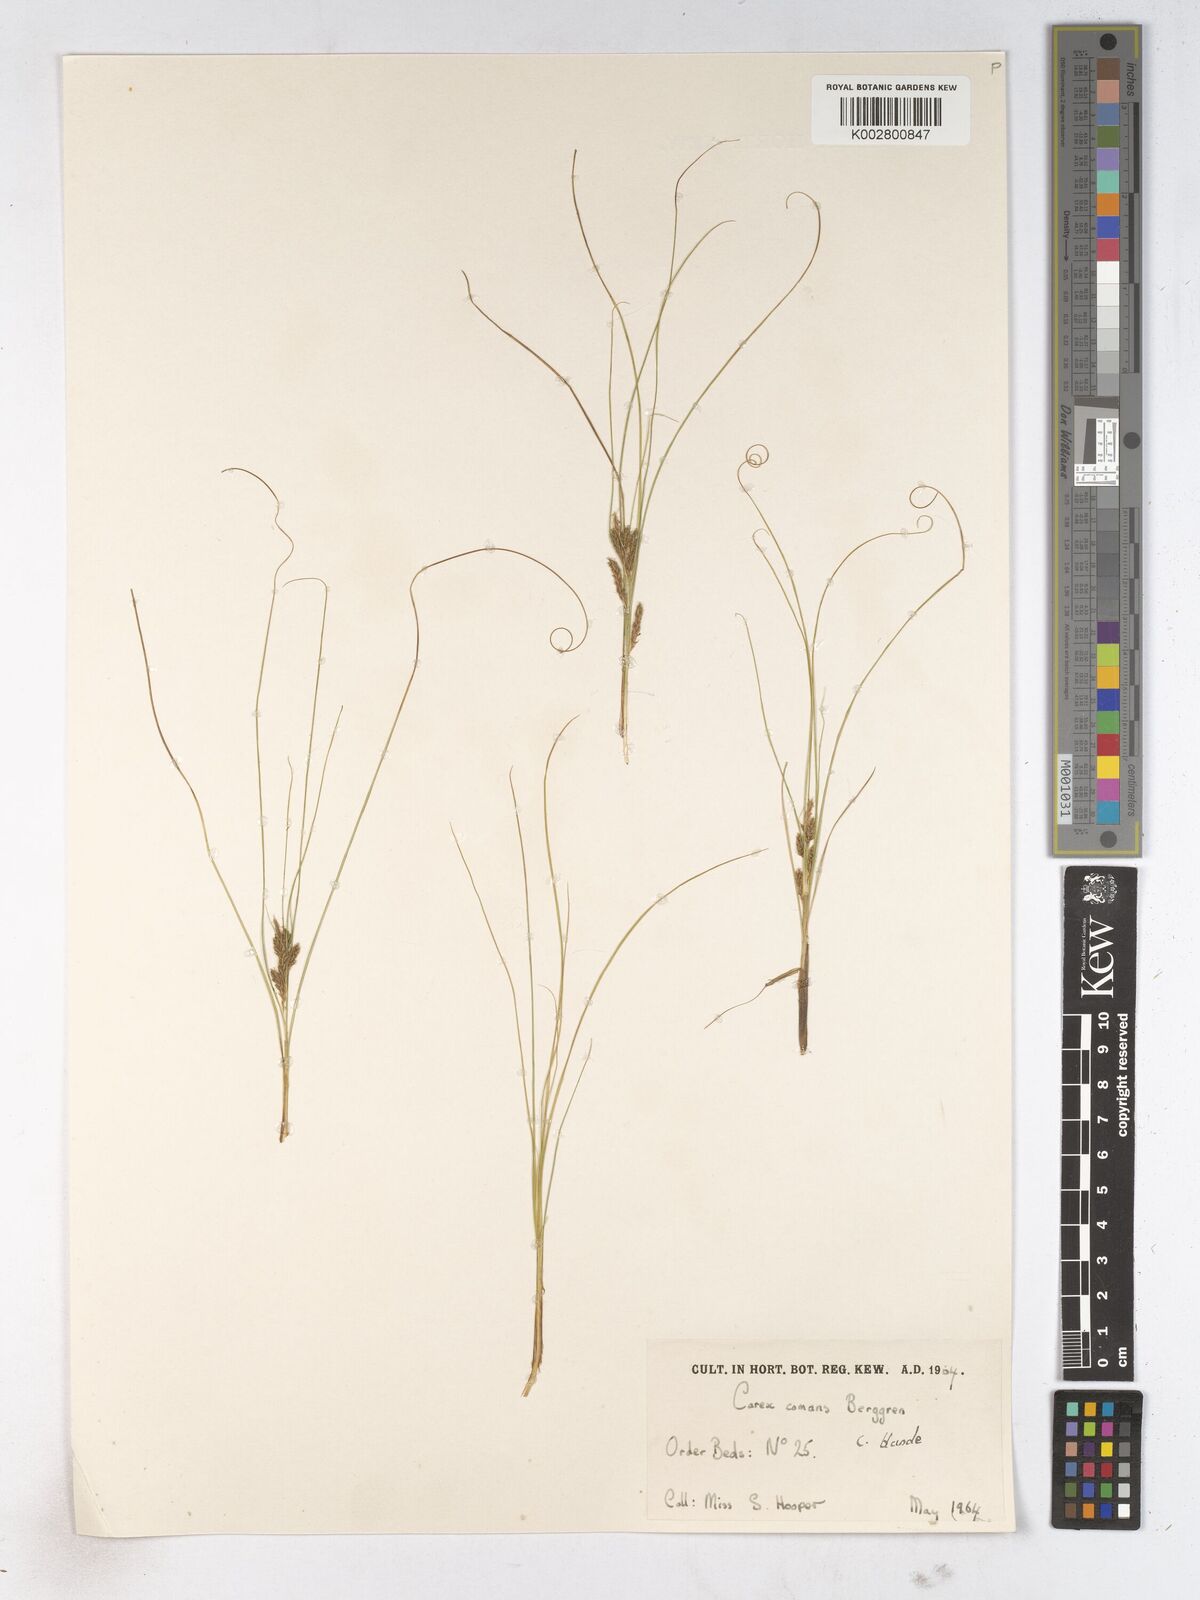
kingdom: Plantae
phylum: Tracheophyta
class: Liliopsida
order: Poales
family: Cyperaceae
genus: Carex
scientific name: Carex comans
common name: Longwood tussock
